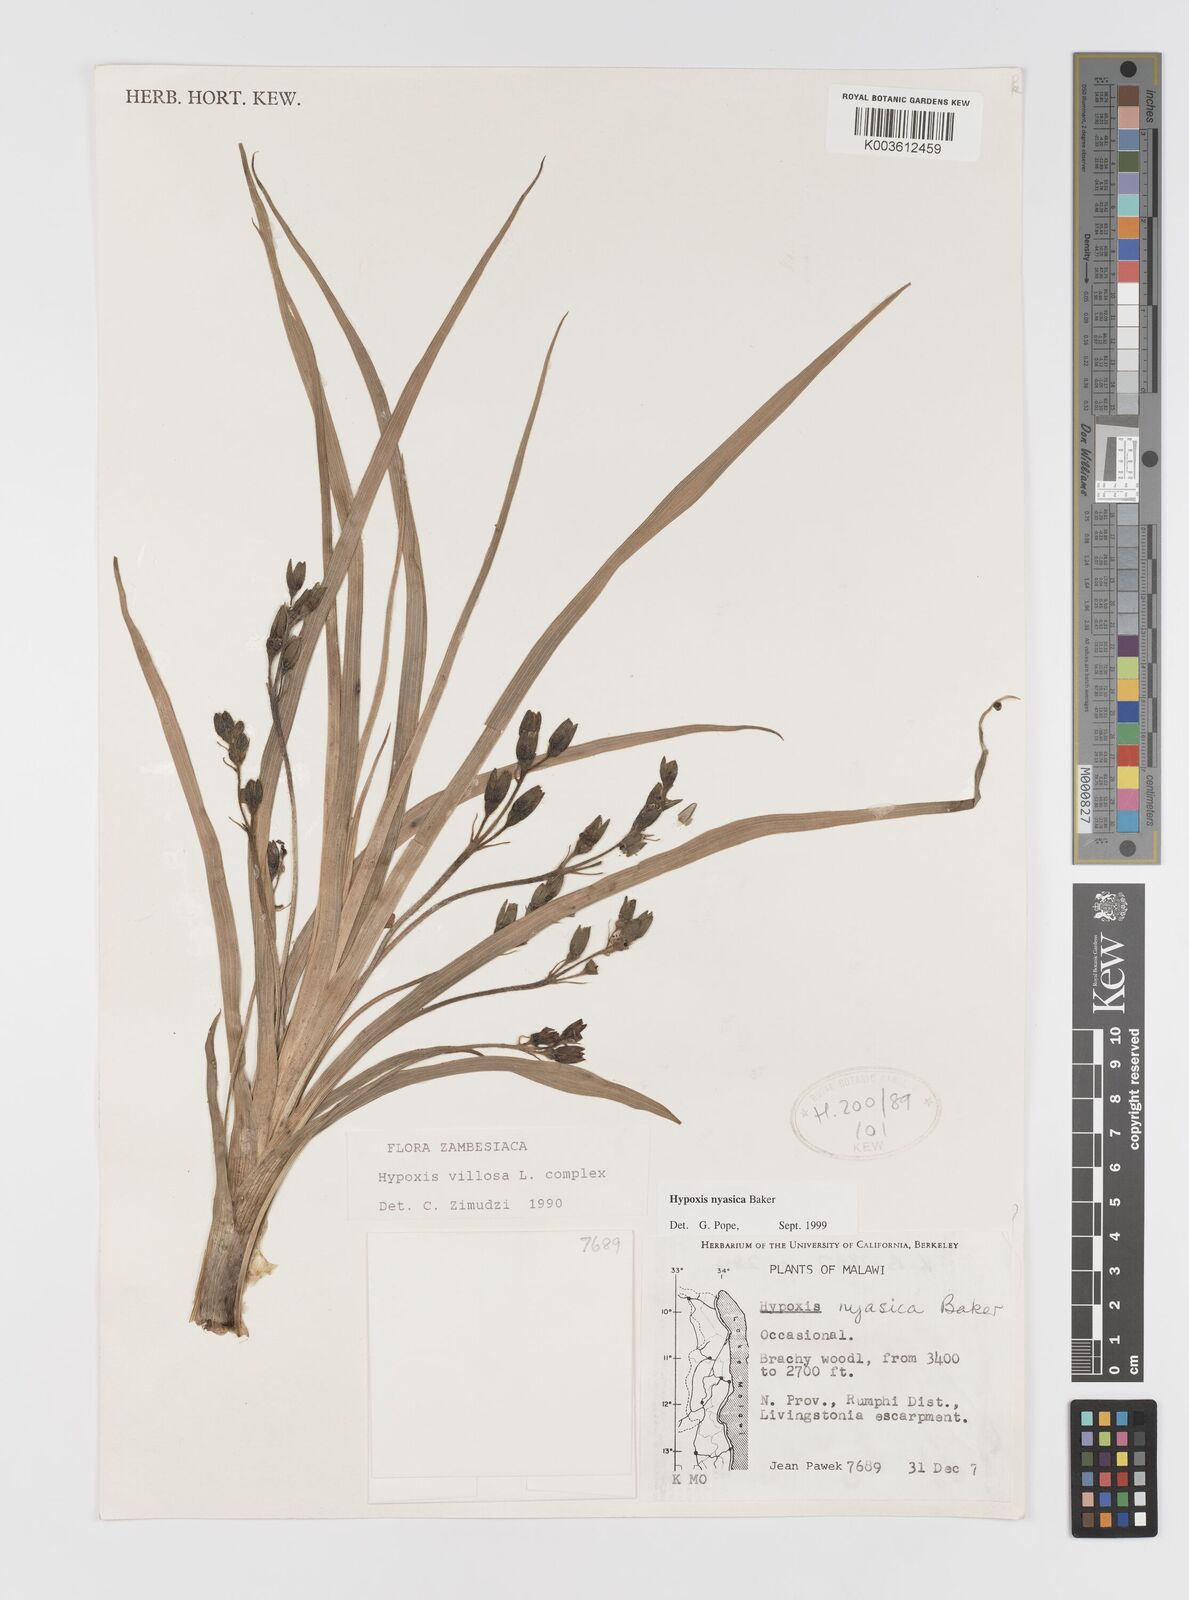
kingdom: Plantae
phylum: Tracheophyta
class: Liliopsida
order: Asparagales
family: Hypoxidaceae
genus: Hypoxis
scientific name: Hypoxis nyasica
